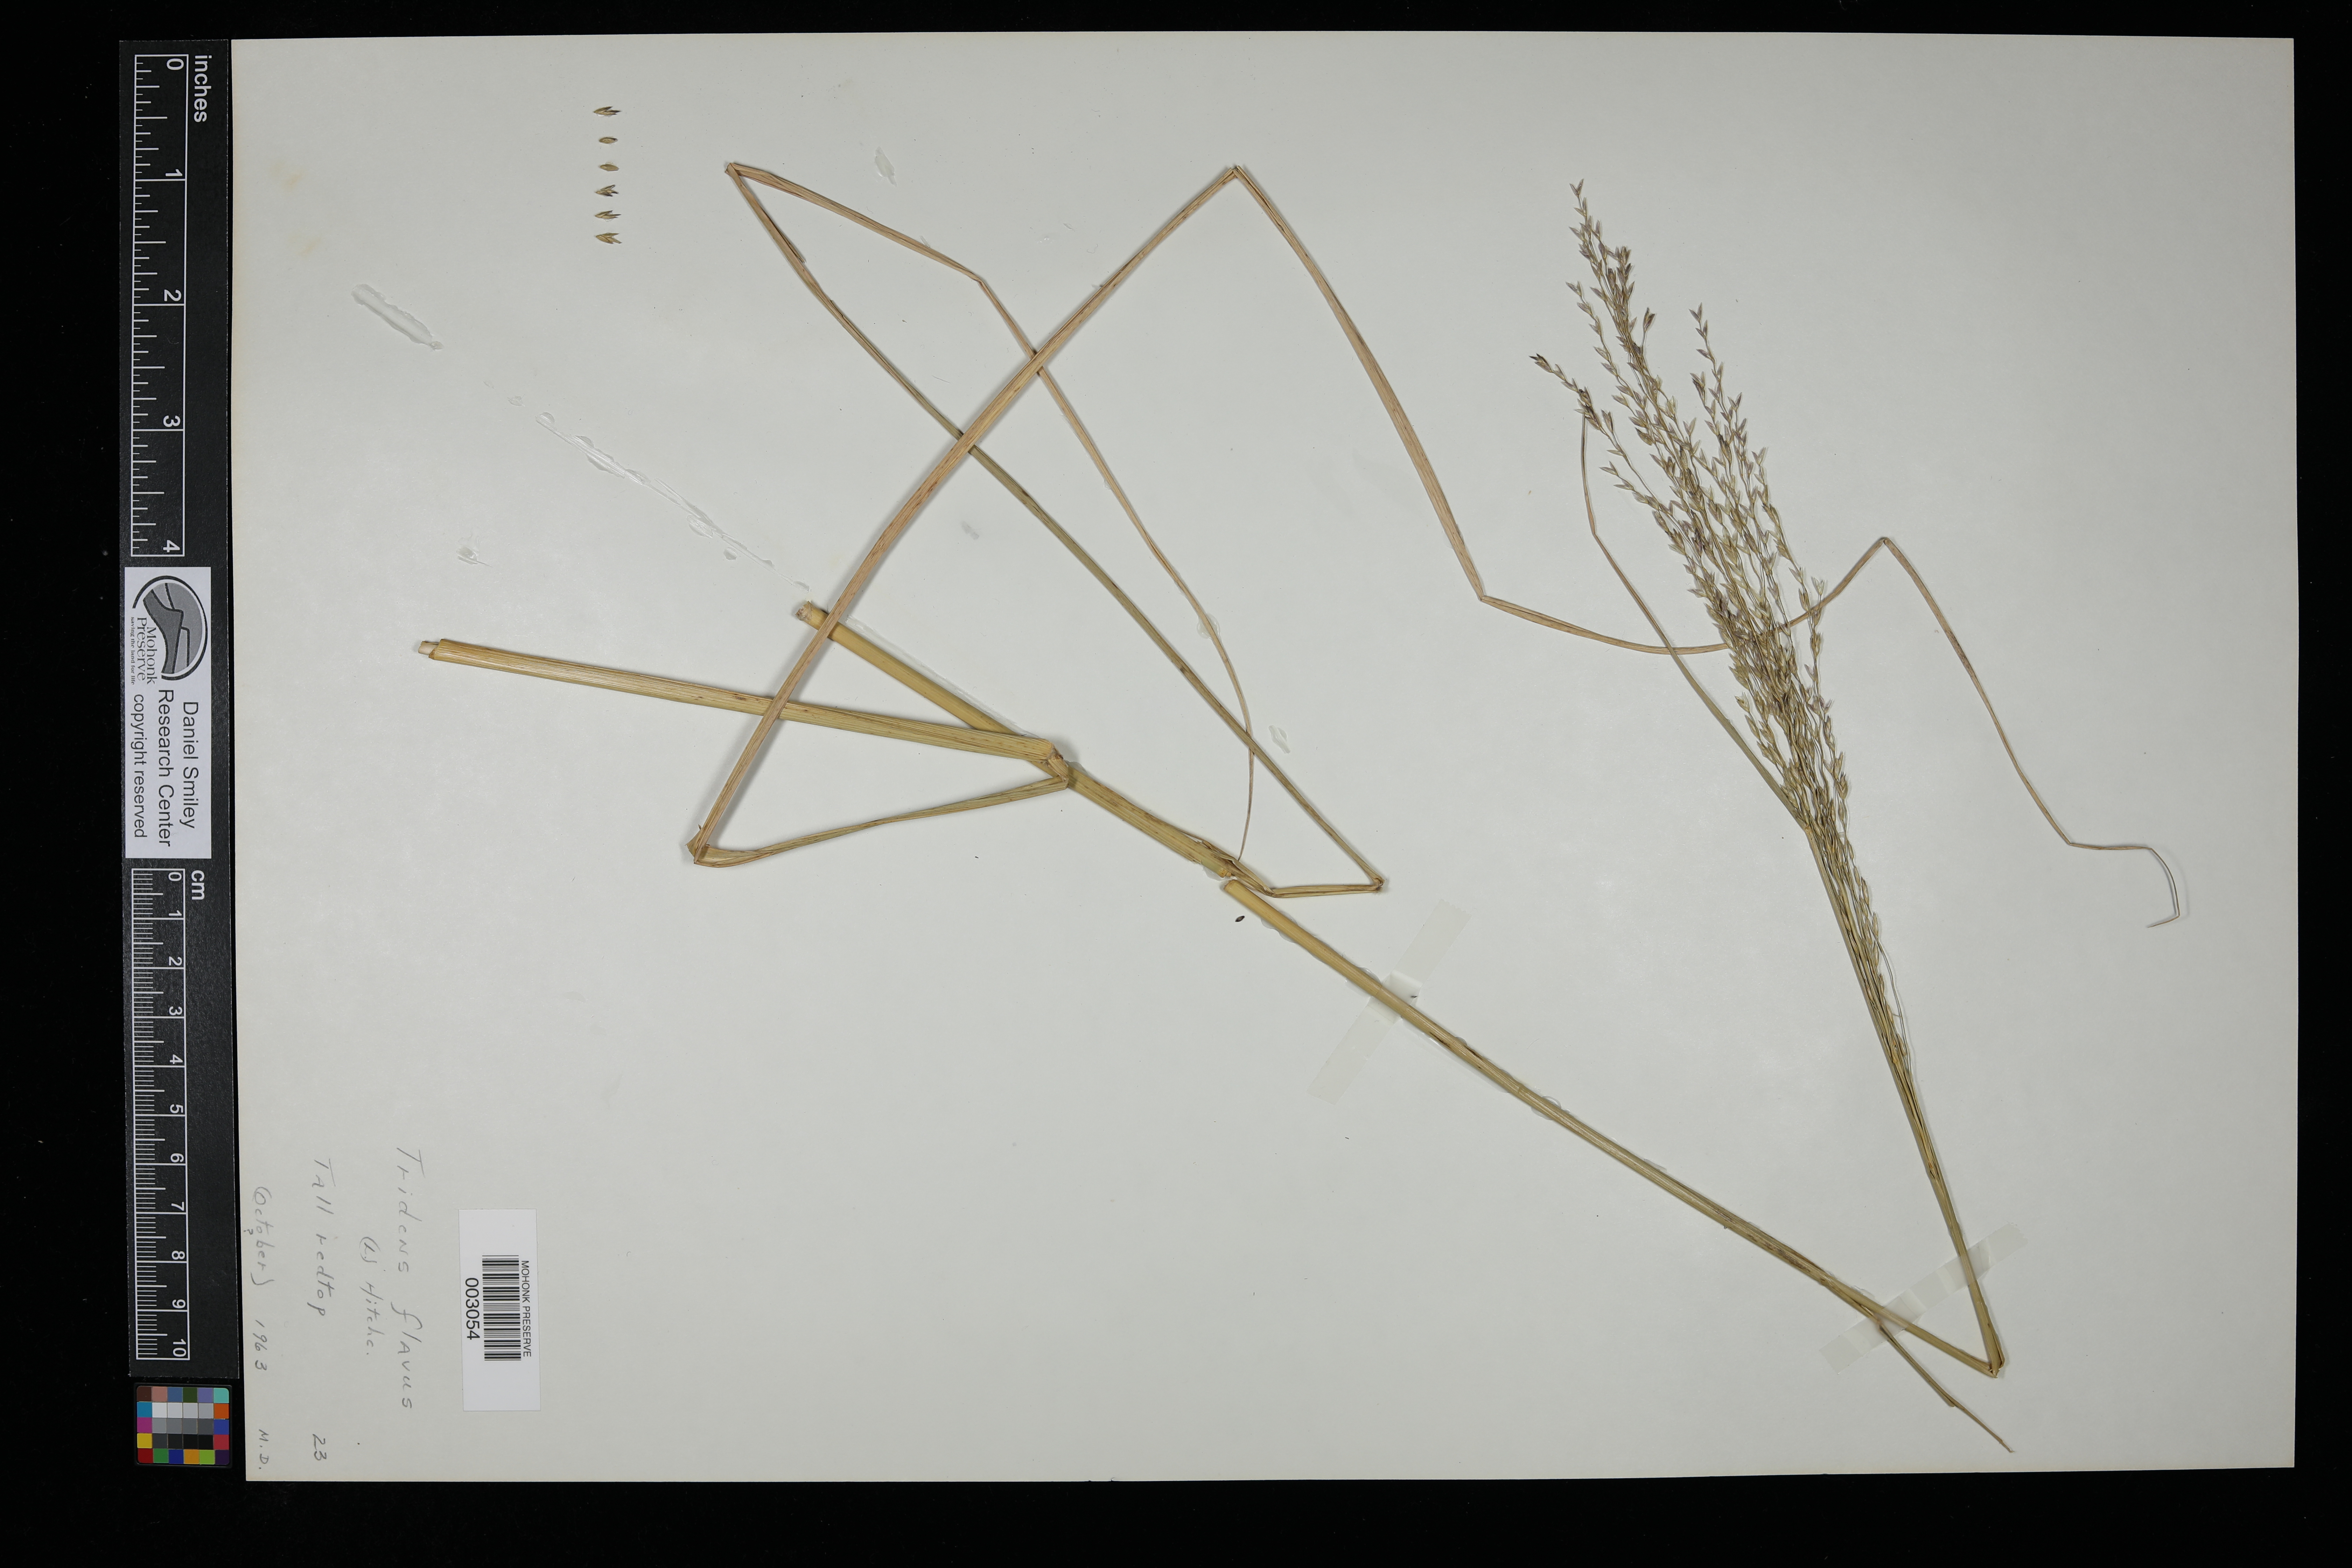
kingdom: Plantae
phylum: Tracheophyta
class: Liliopsida
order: Poales
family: Poaceae
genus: Tridens
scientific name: Tridens flavus
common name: Purpletop
